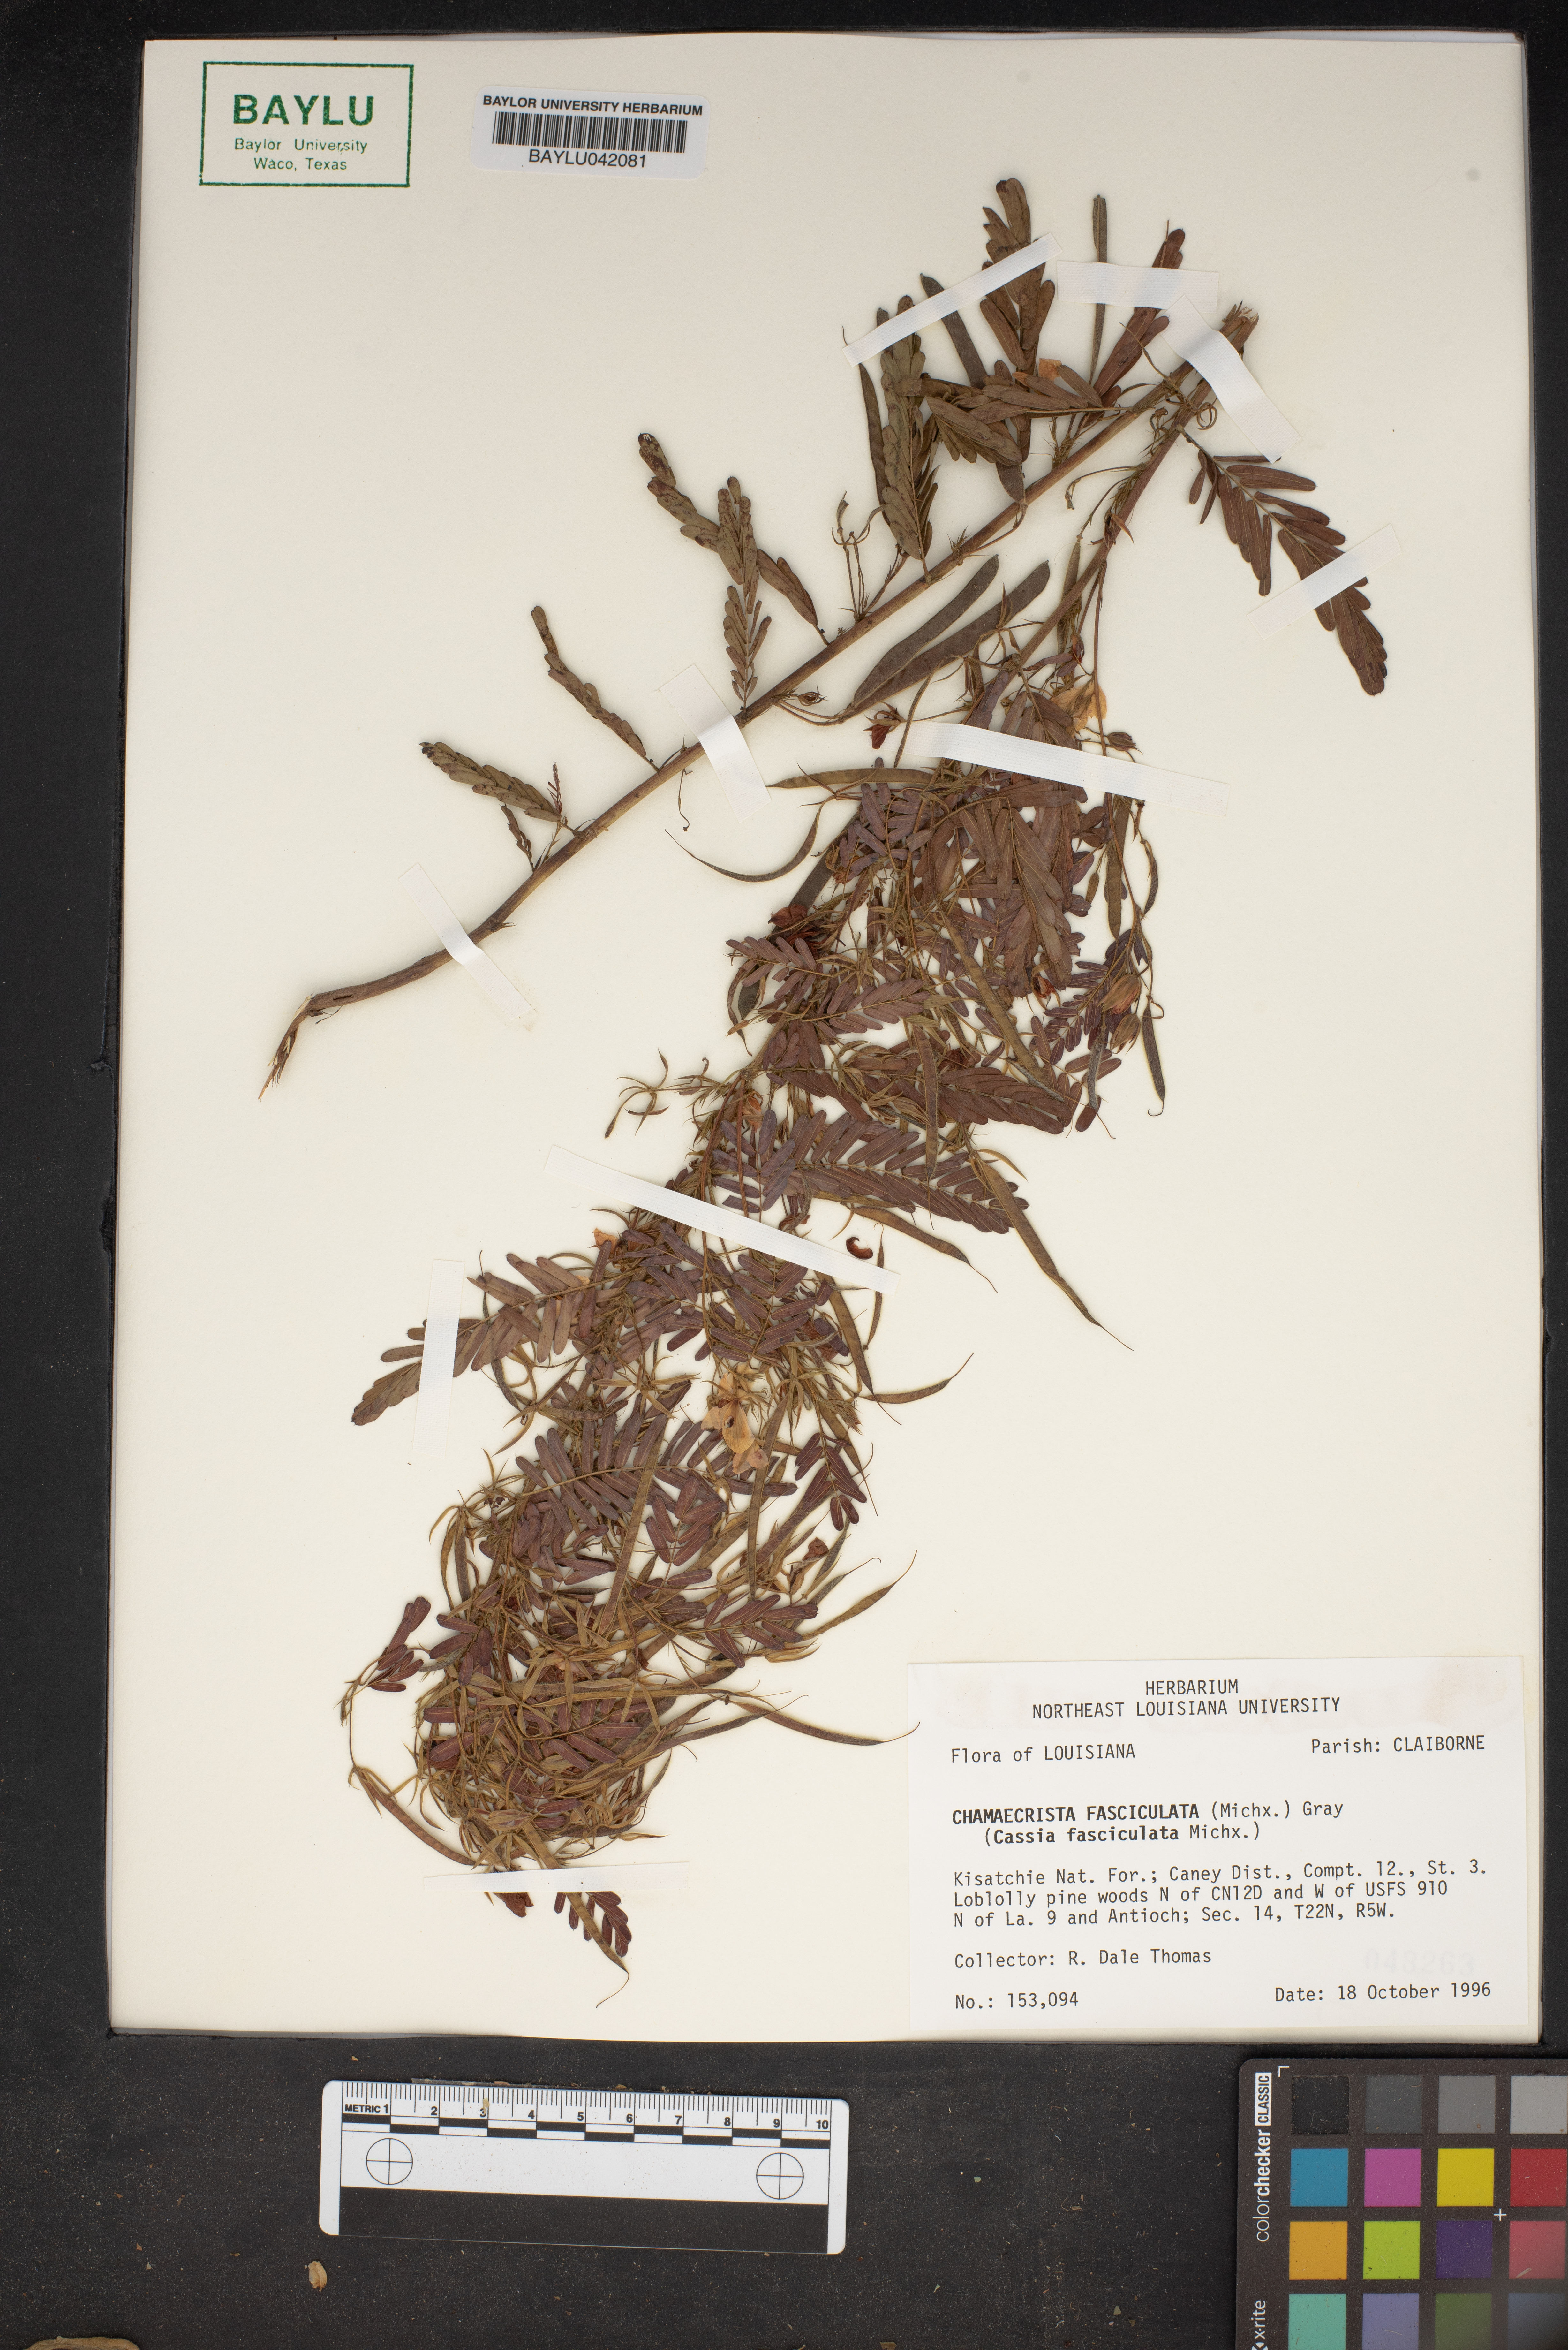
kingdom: Plantae
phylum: Tracheophyta
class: Magnoliopsida
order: Fabales
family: Fabaceae
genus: Chamaecrista
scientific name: Chamaecrista fasciculata
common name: Golden cassia
